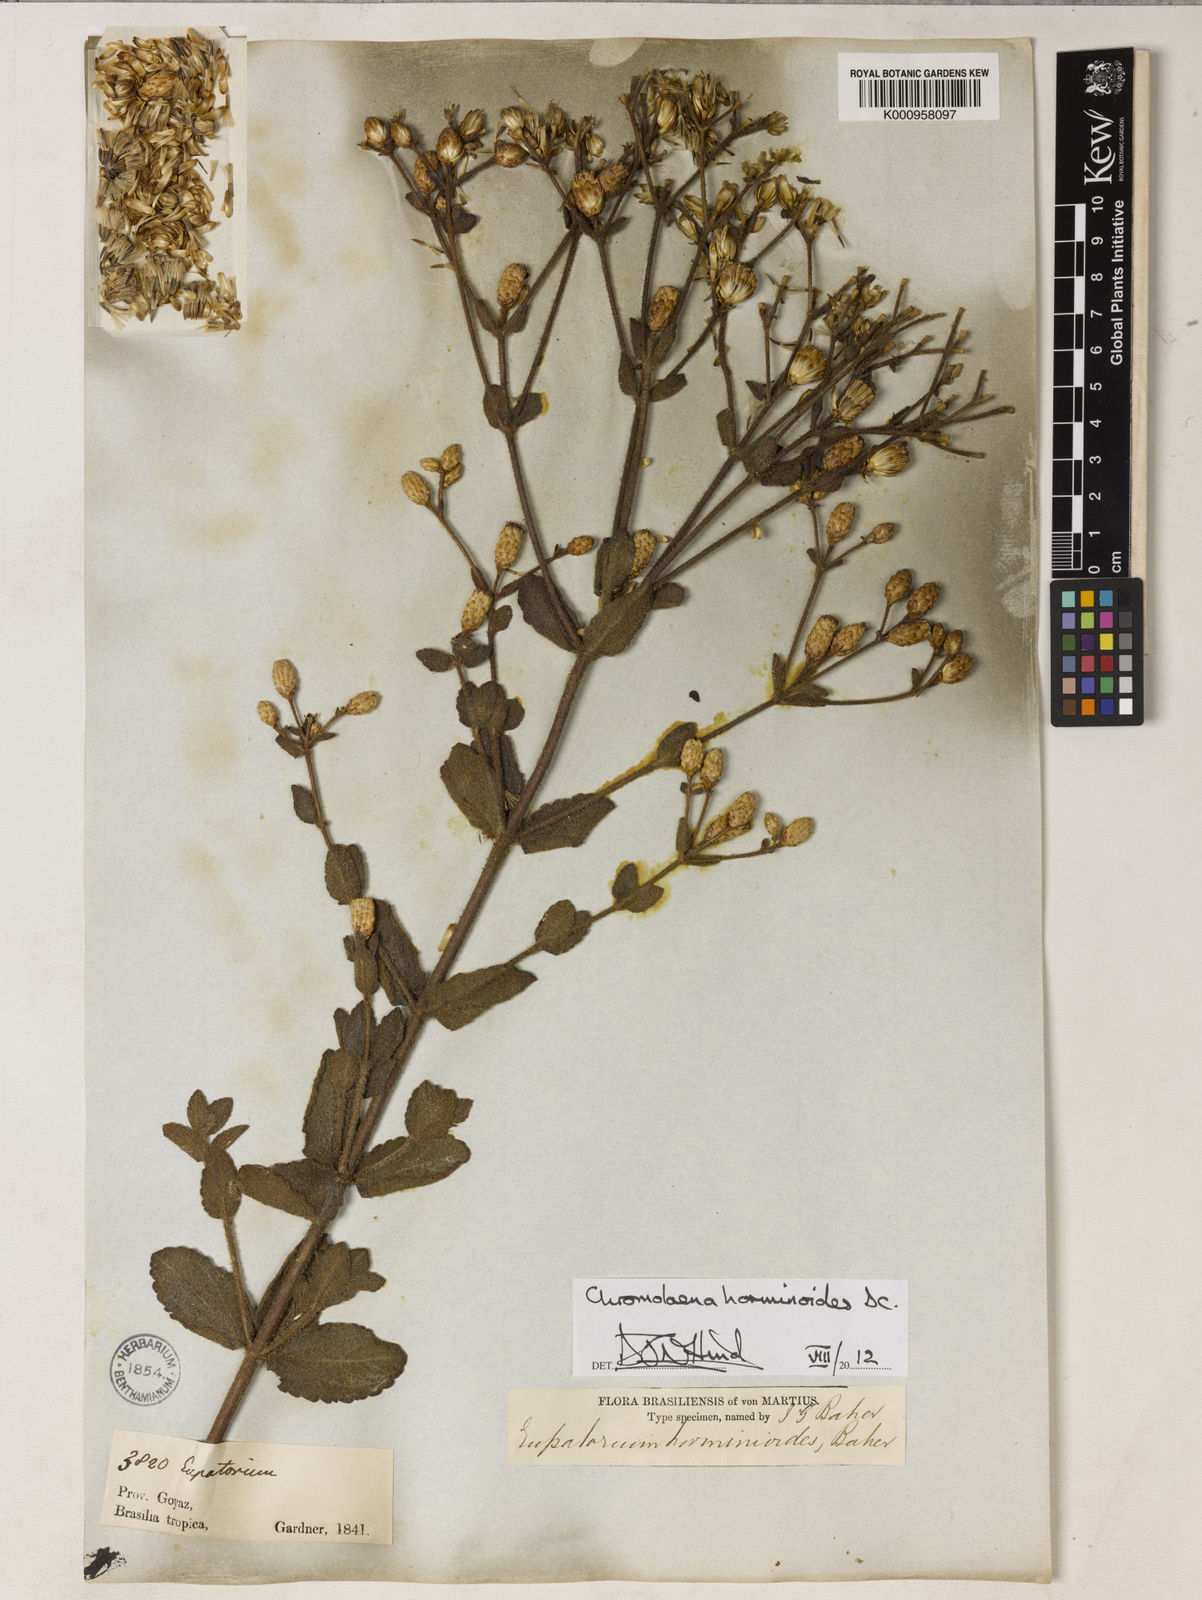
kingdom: Plantae
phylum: Tracheophyta
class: Magnoliopsida
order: Asterales
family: Asteraceae
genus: Chromolaena
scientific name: Chromolaena horminoides
